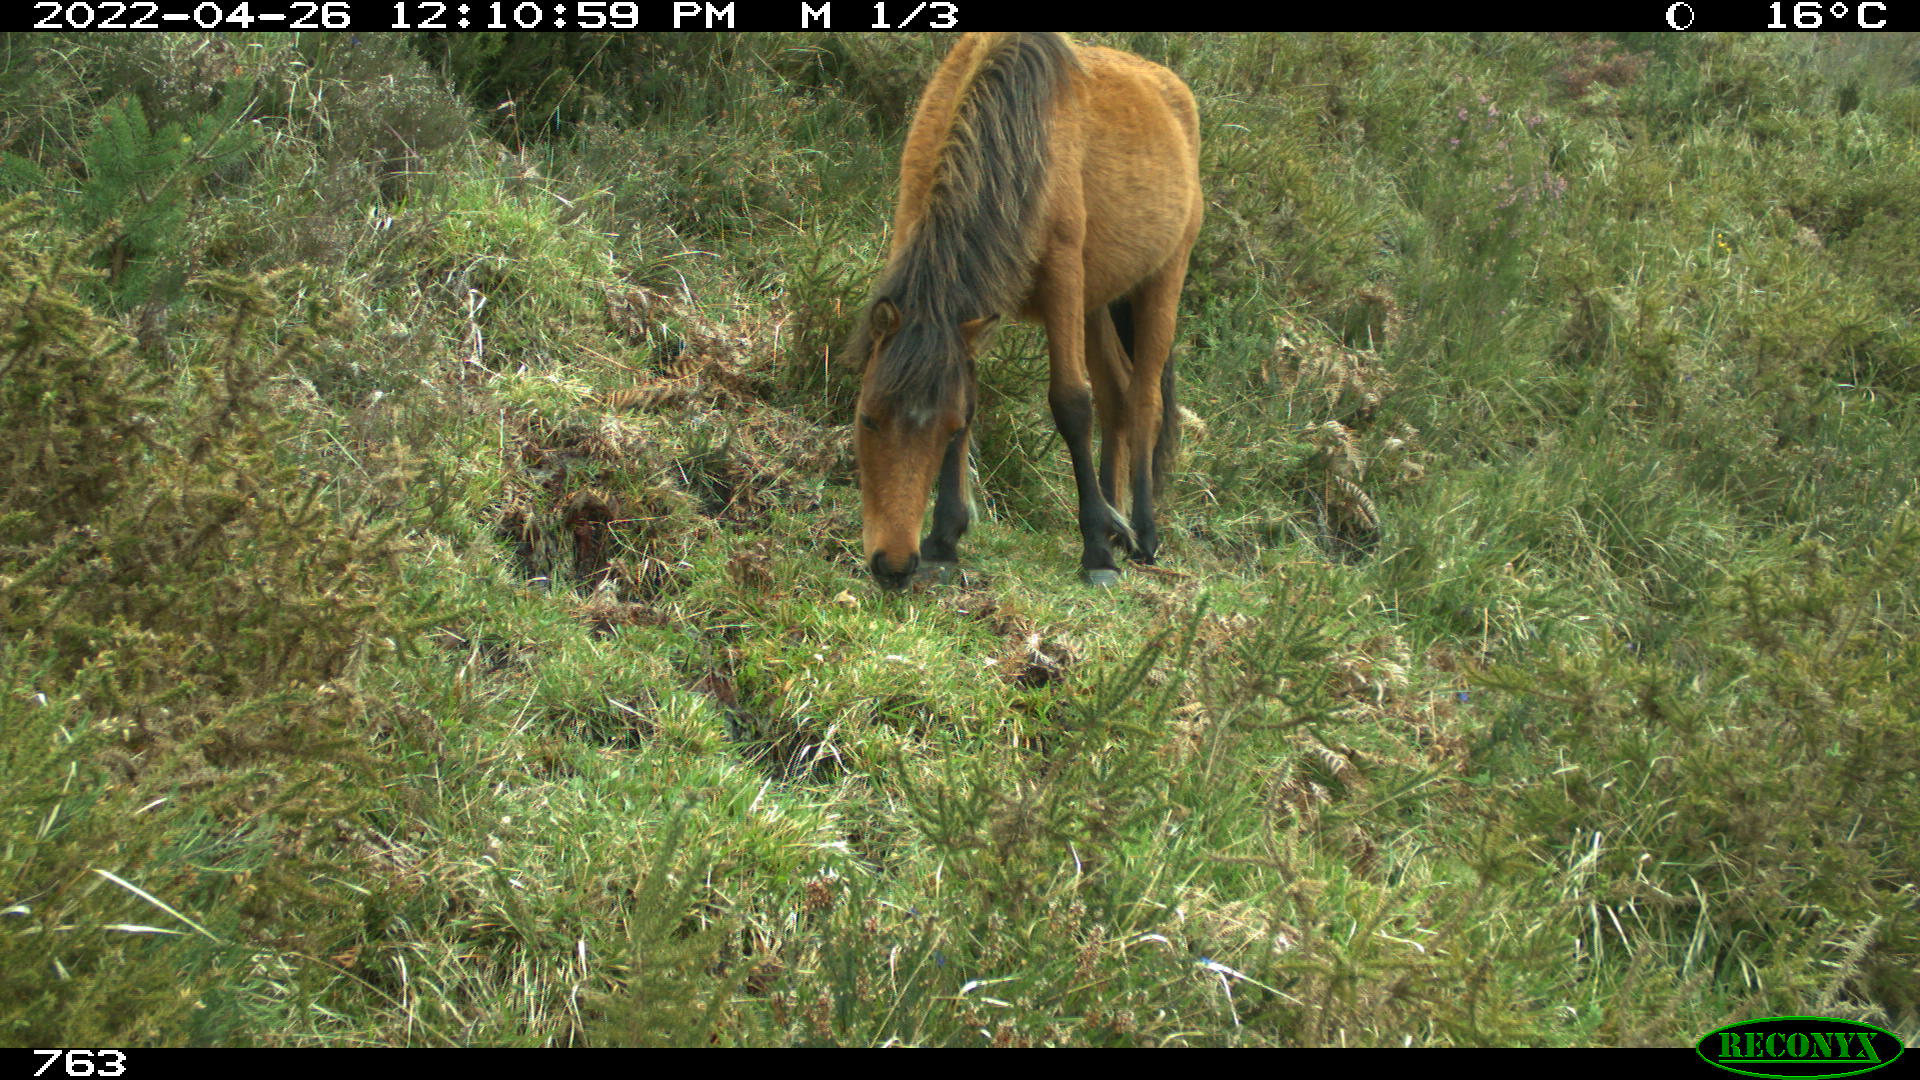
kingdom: Animalia
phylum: Chordata
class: Mammalia
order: Perissodactyla
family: Equidae
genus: Equus
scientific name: Equus caballus
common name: Horse
